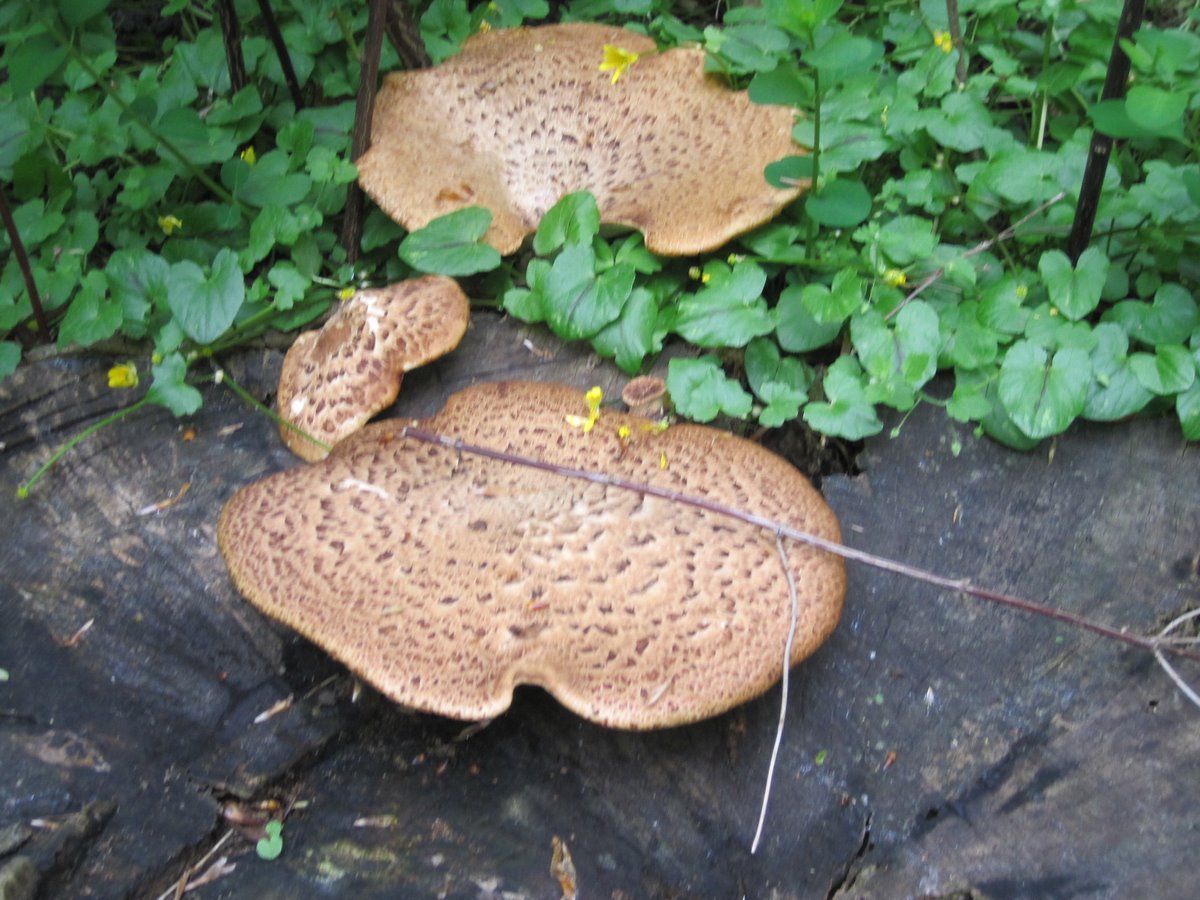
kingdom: Fungi
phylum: Basidiomycota
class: Agaricomycetes
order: Polyporales
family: Polyporaceae
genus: Cerioporus
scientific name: Cerioporus squamosus
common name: skællet stilkporesvamp
